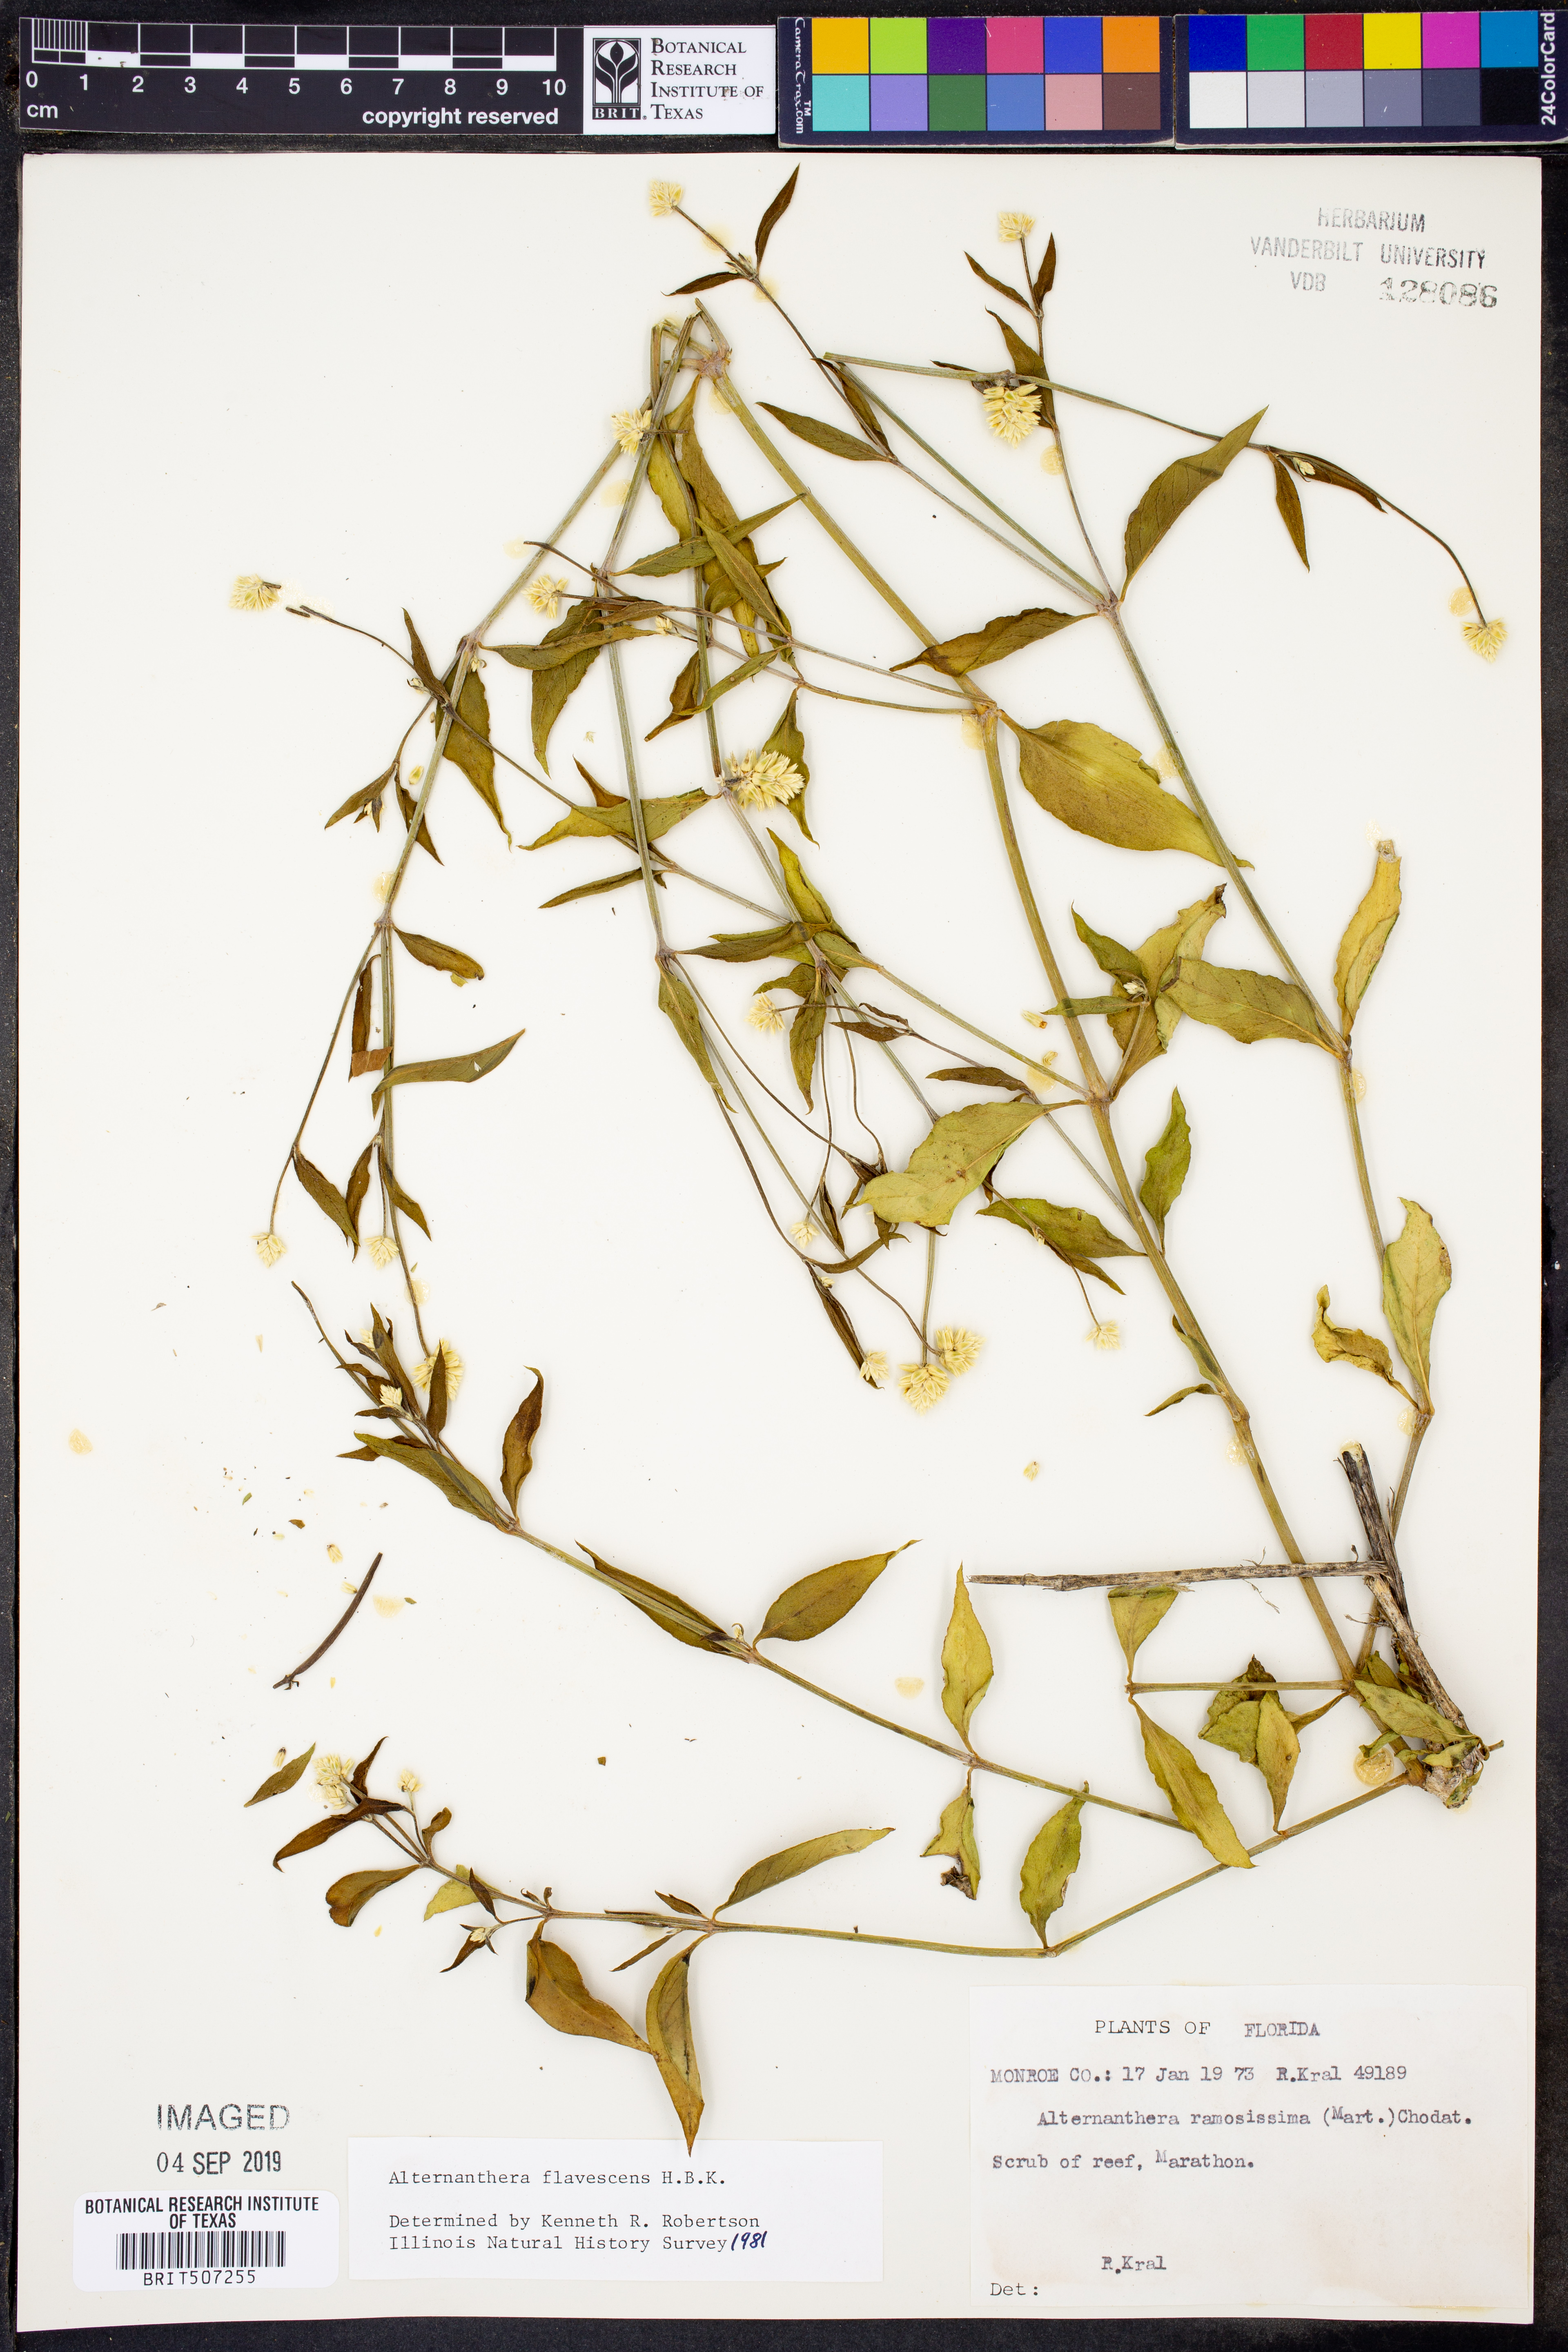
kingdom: Plantae
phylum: Tracheophyta
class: Magnoliopsida
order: Caryophyllales
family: Amaranthaceae
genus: Alternanthera
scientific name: Alternanthera flavescens
